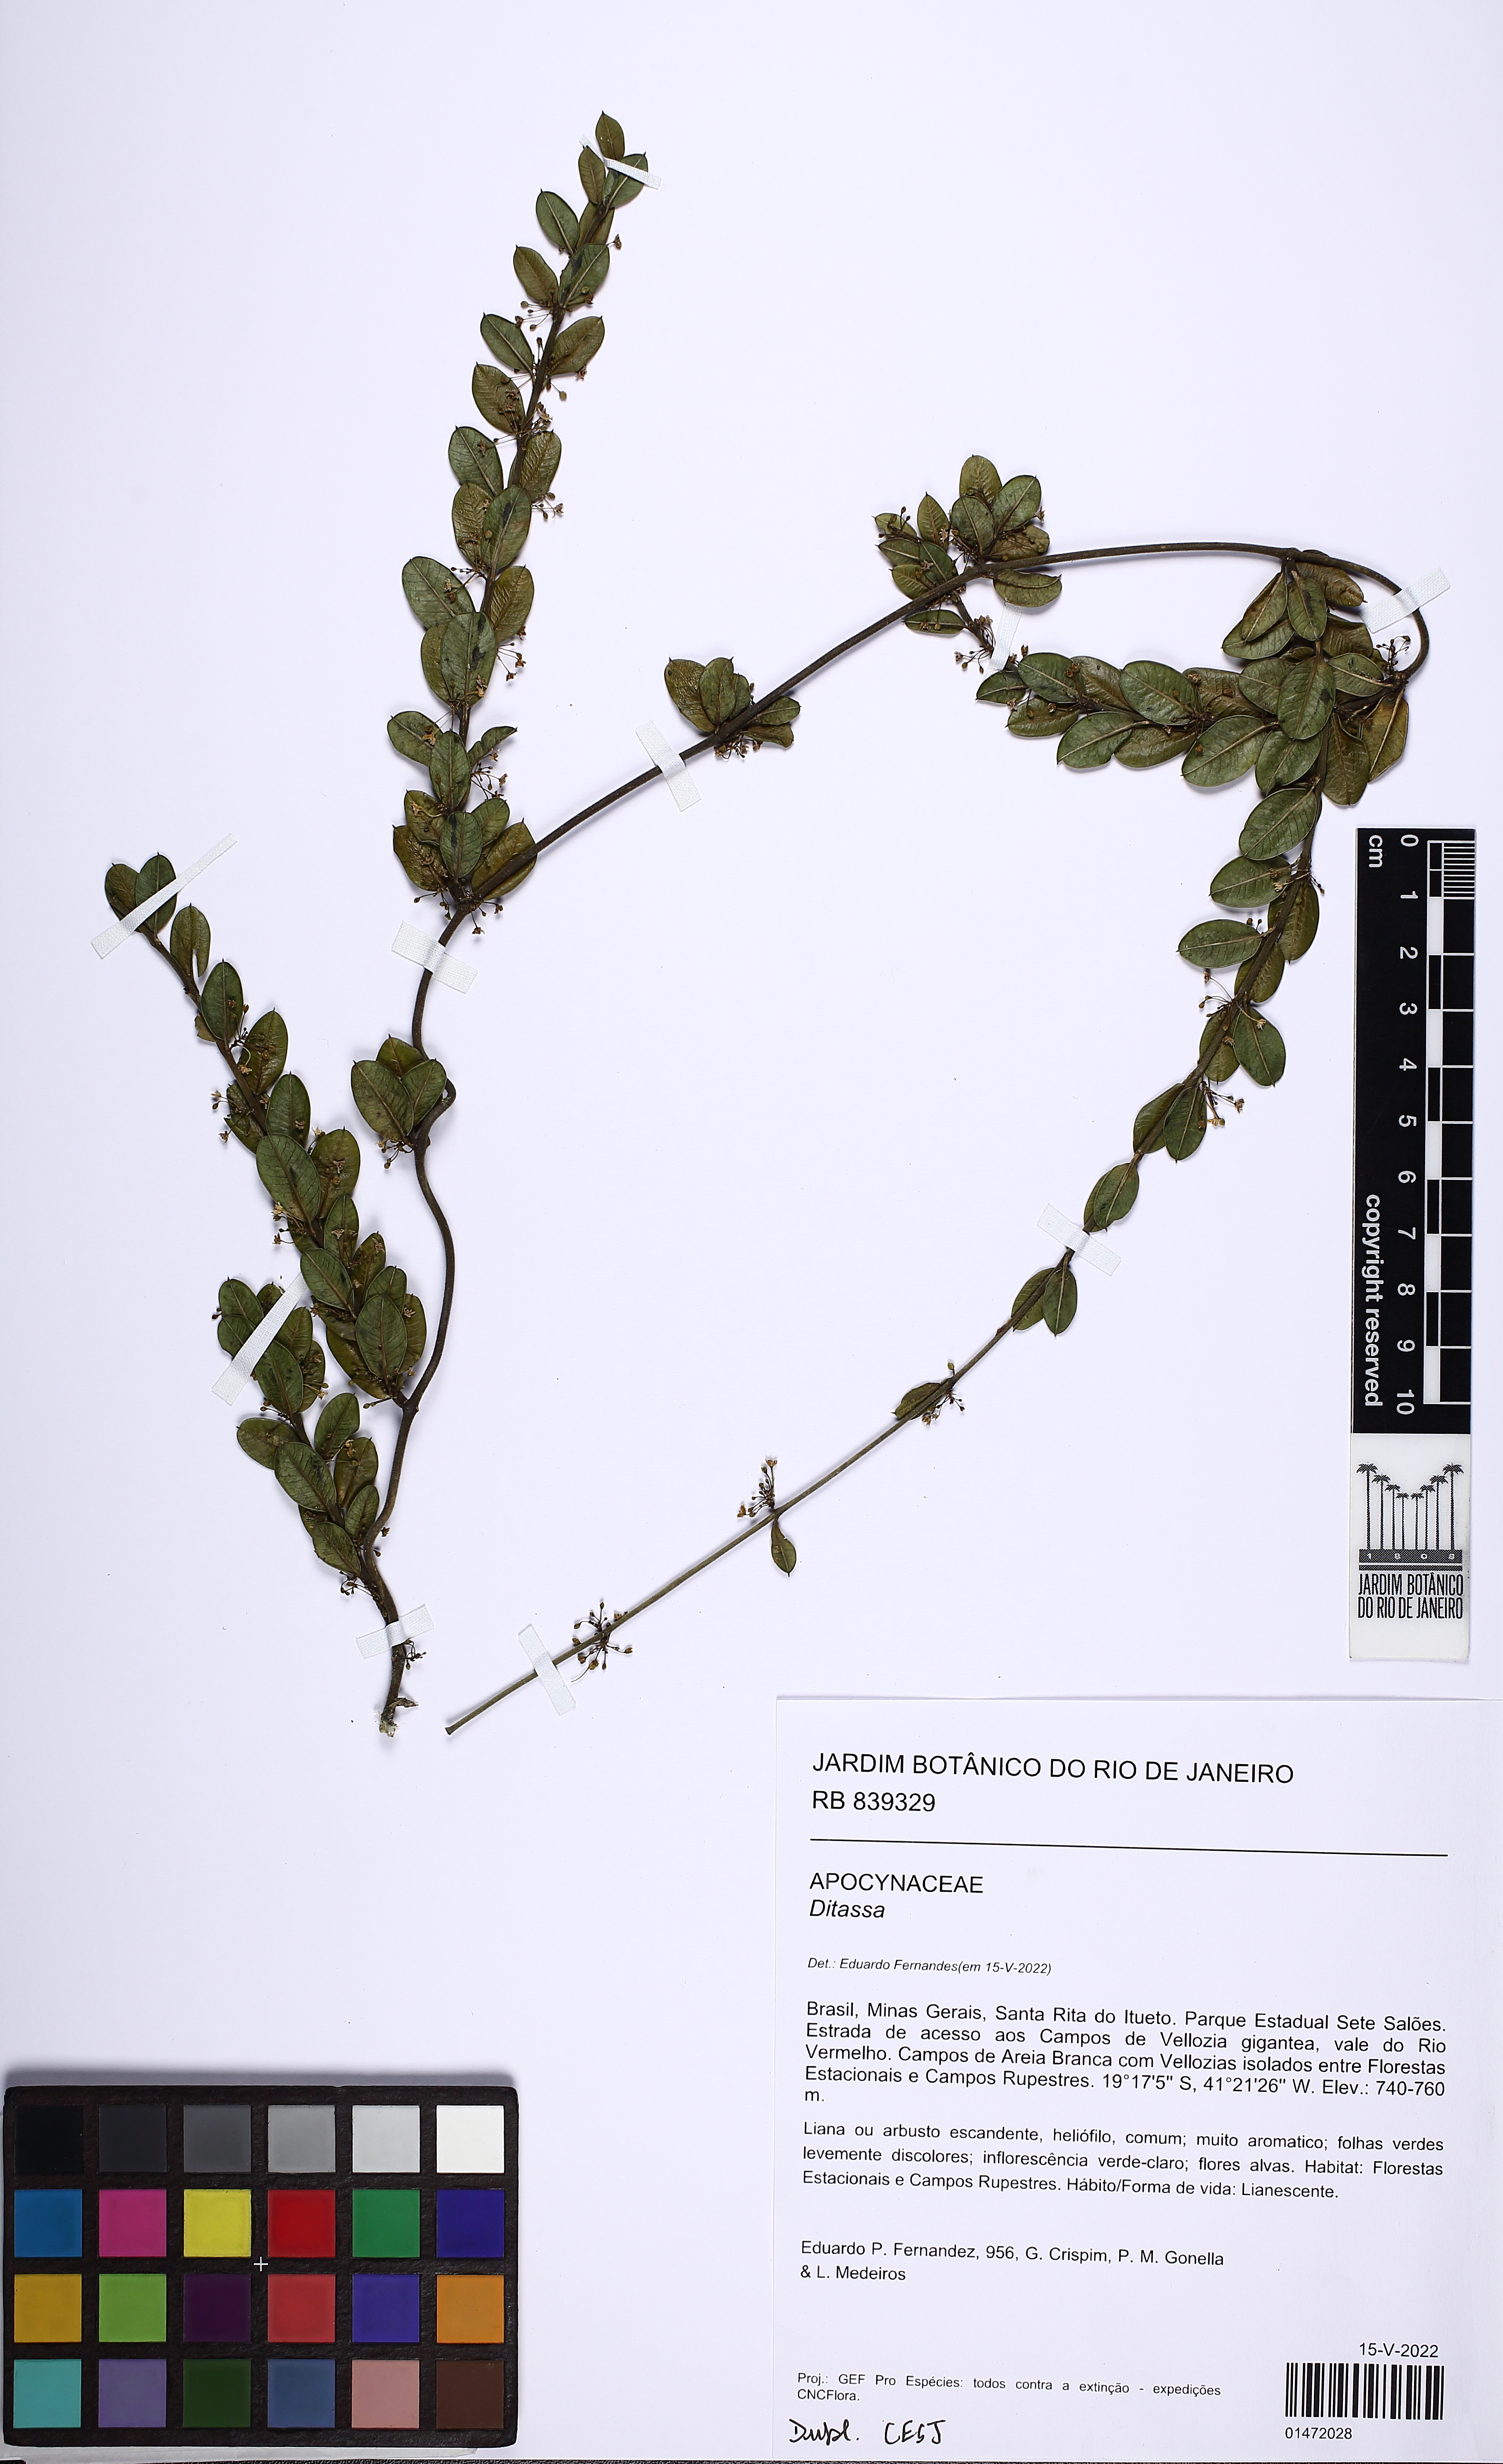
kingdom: Plantae
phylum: Tracheophyta
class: Magnoliopsida
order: Gentianales
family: Apocynaceae
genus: Ditassa
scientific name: Ditassa
